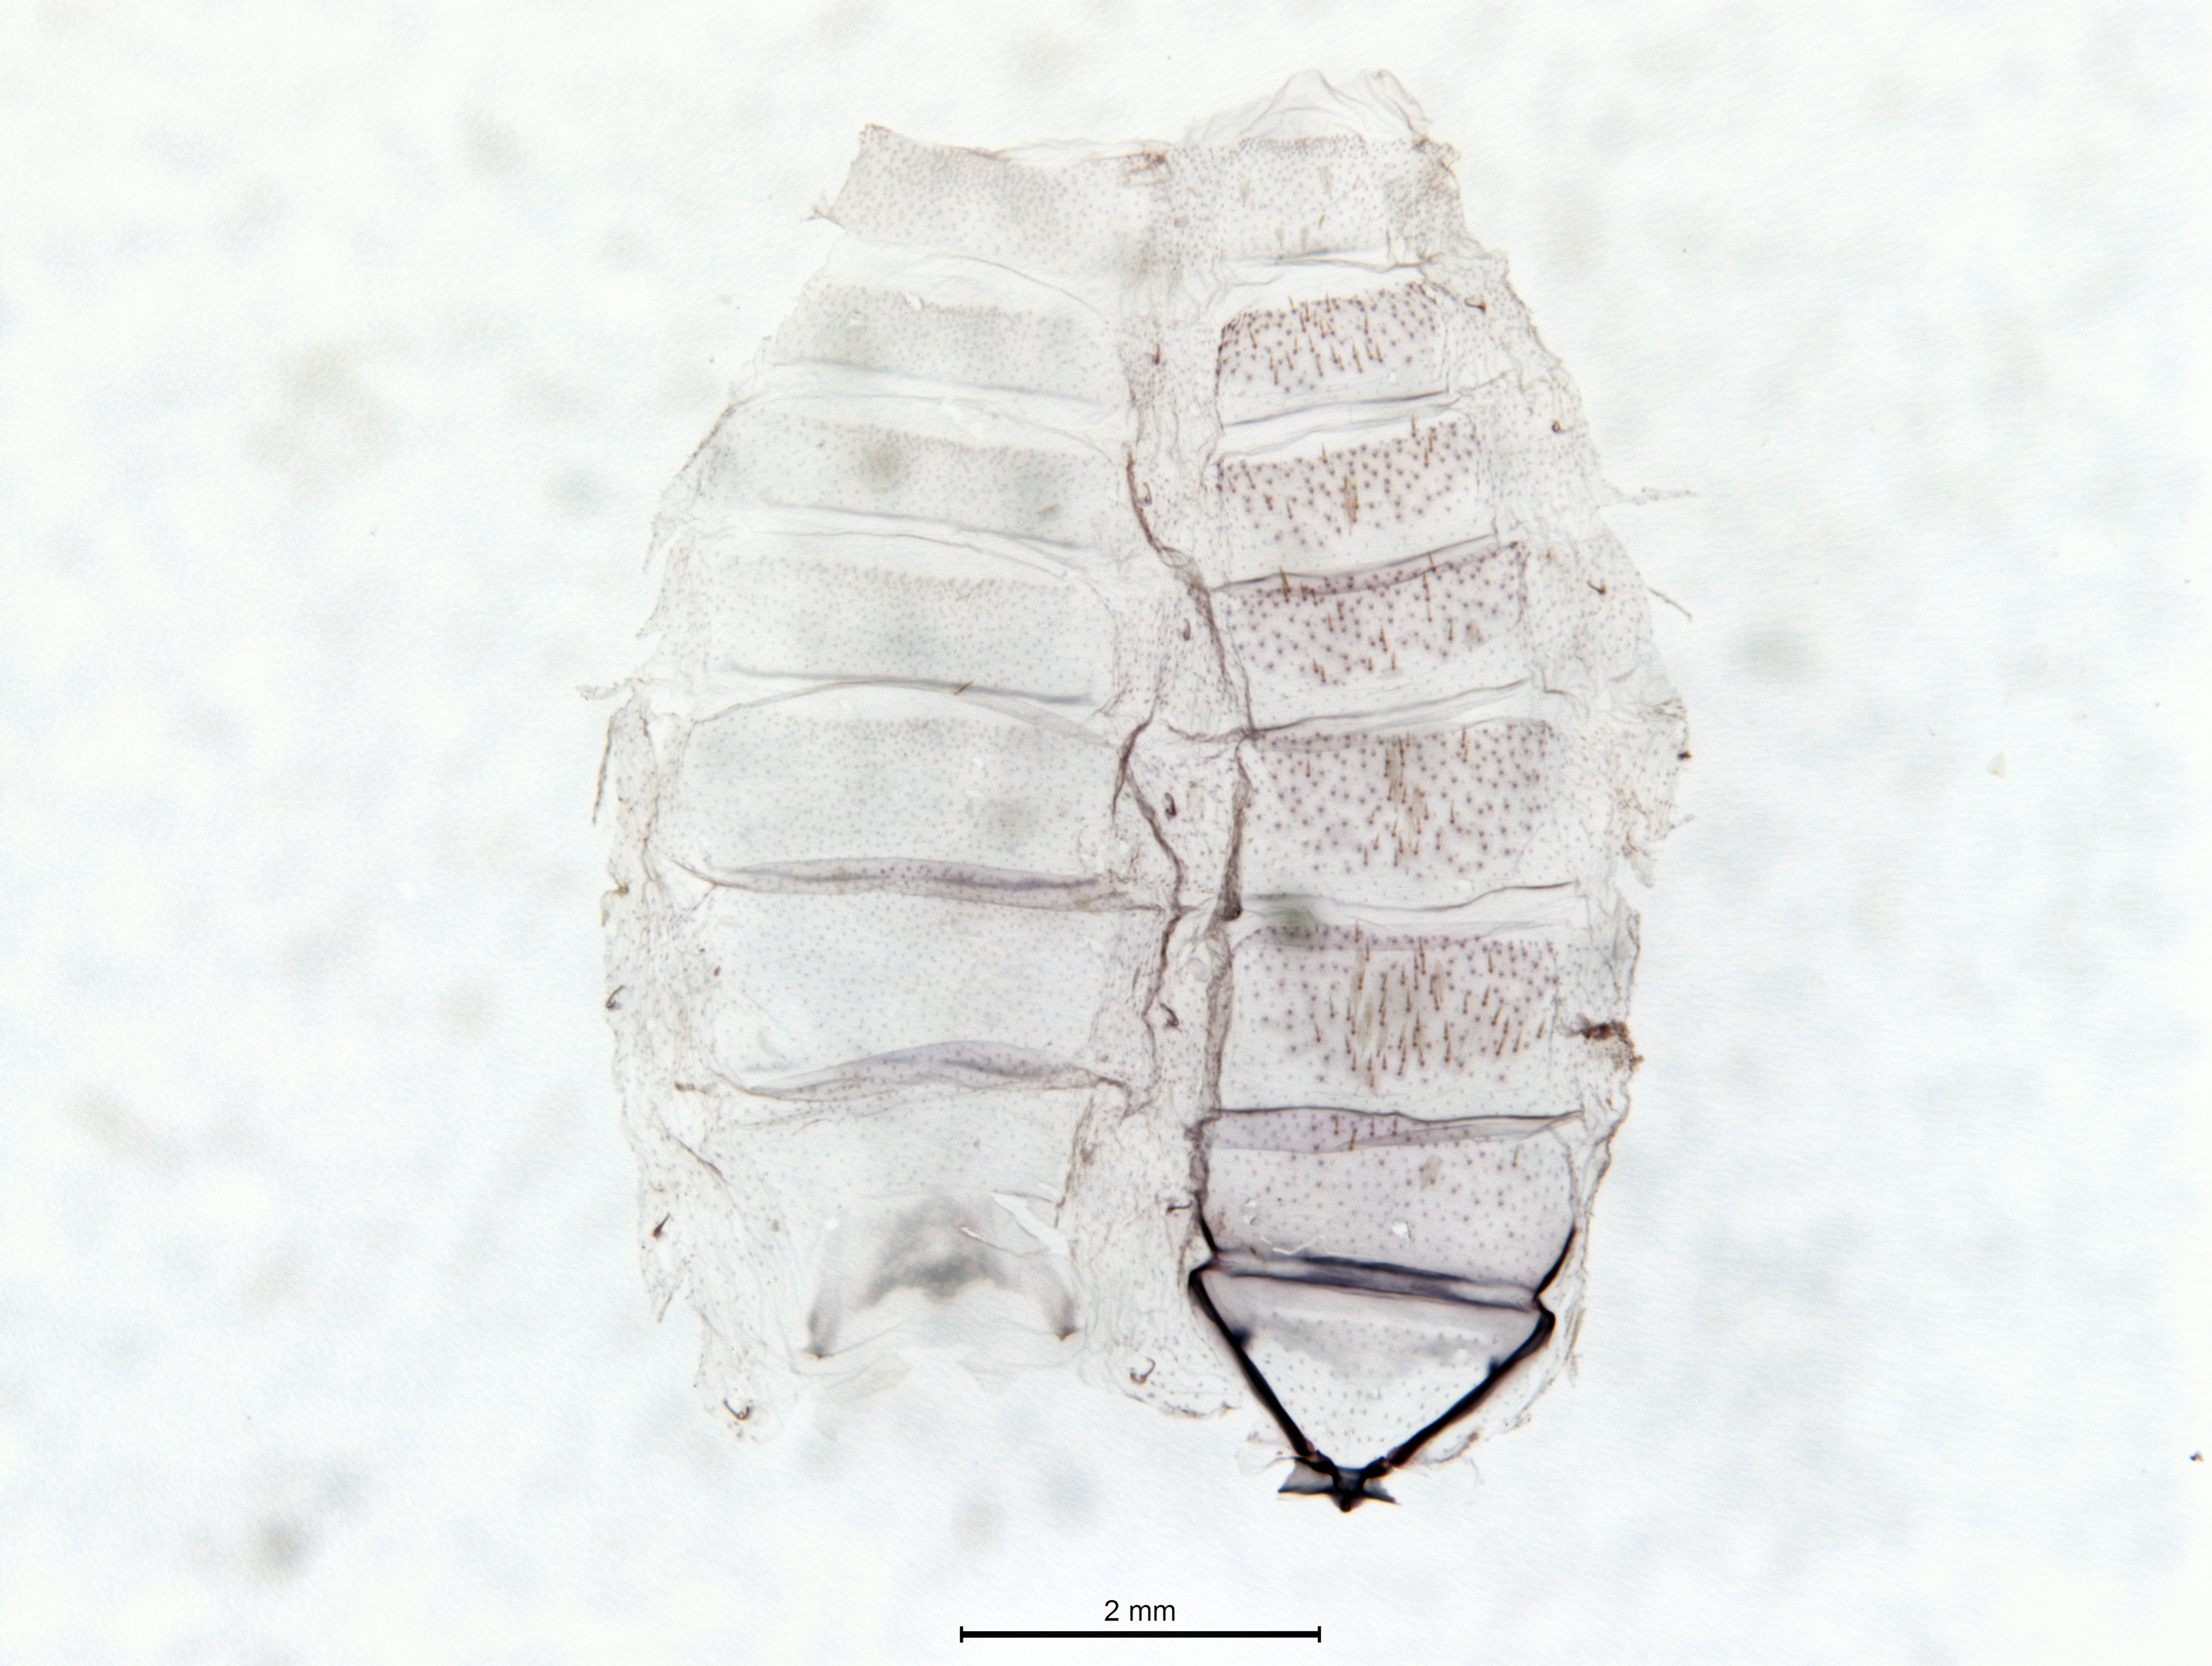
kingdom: Animalia
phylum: Arthropoda
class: Insecta
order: Lepidoptera
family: Oecophoridae
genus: Trachypepla
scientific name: Trachypepla nimbosa
